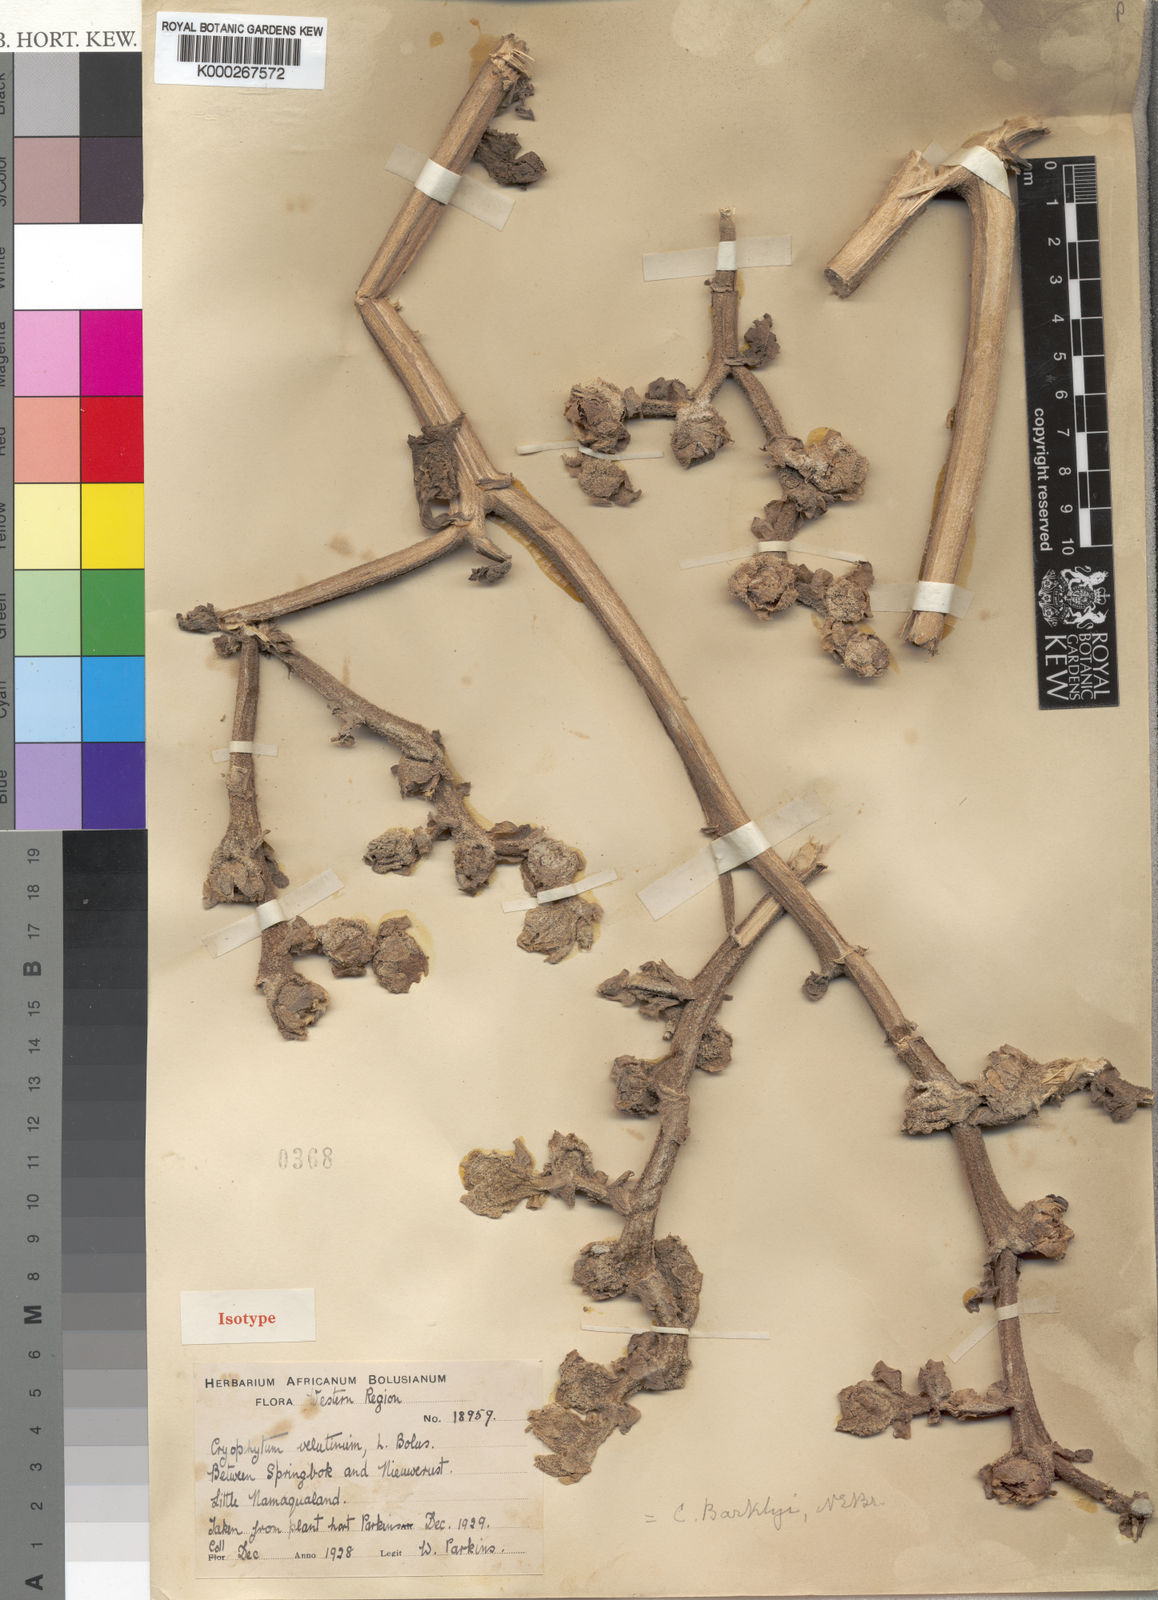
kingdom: Plantae
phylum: Tracheophyta
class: Magnoliopsida
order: Caryophyllales
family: Aizoaceae
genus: Mesembryanthemum
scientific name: Mesembryanthemum barklyi
